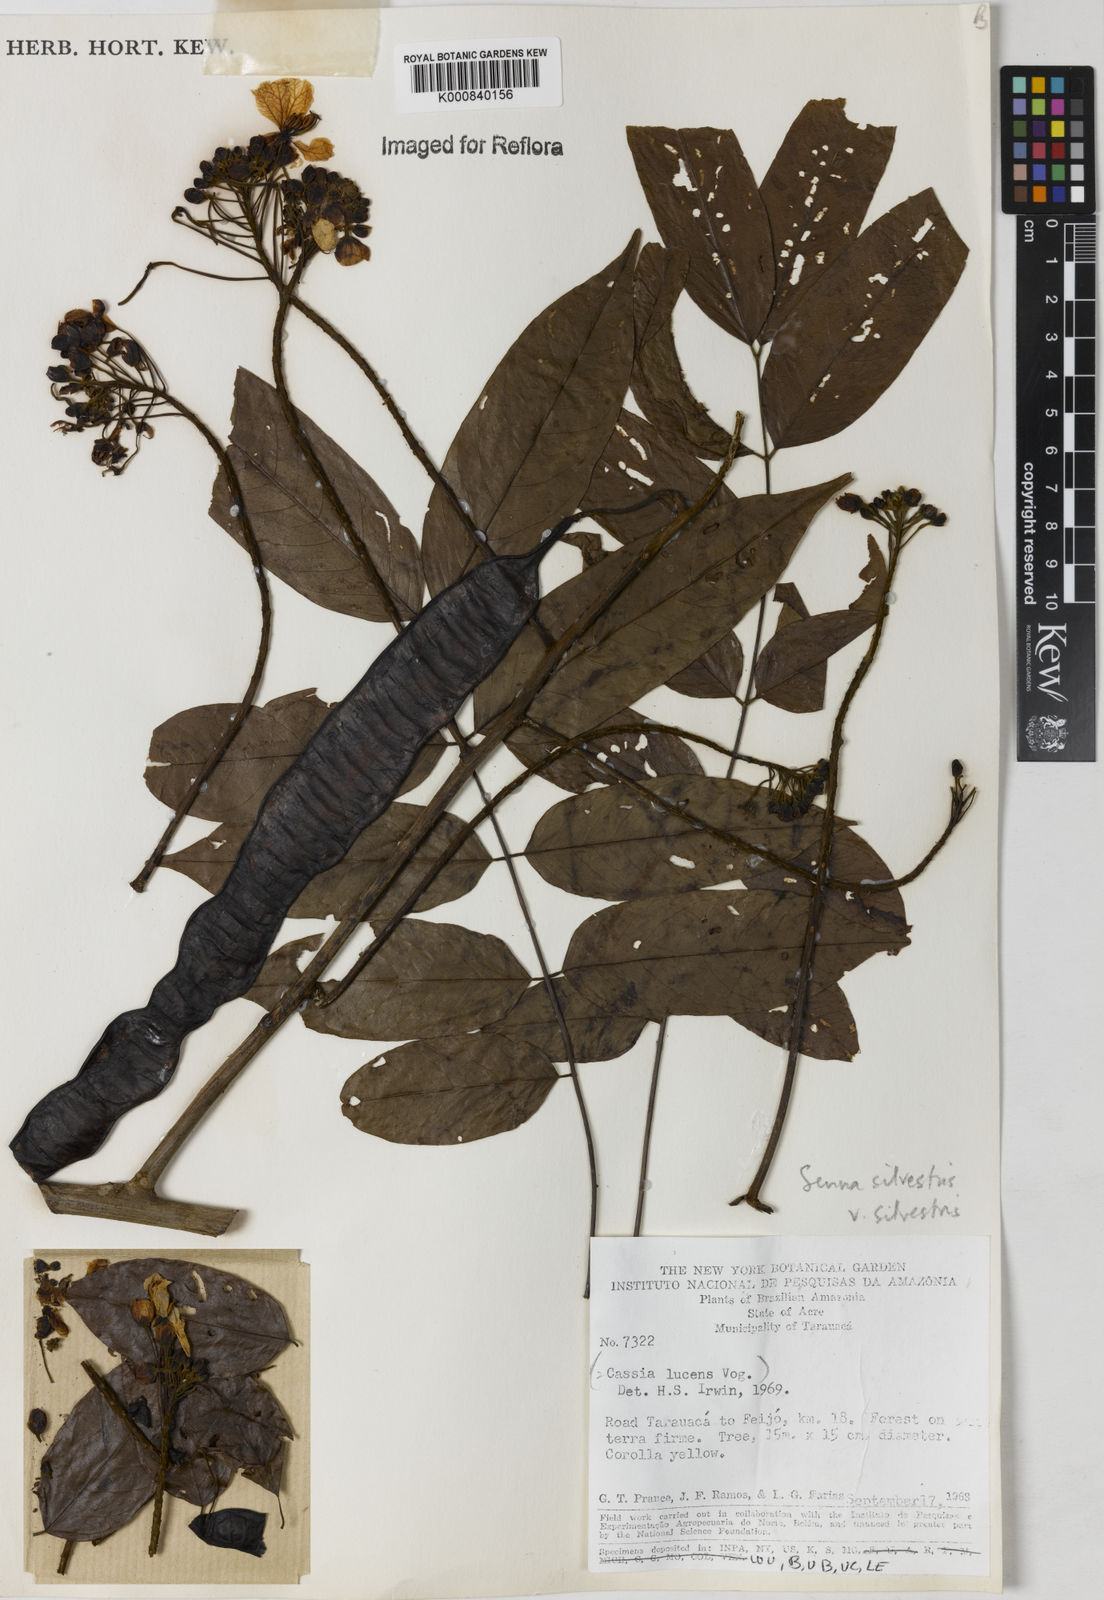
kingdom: Plantae
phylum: Tracheophyta
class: Magnoliopsida
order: Fabales
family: Fabaceae
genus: Senna
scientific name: Senna silvestris
